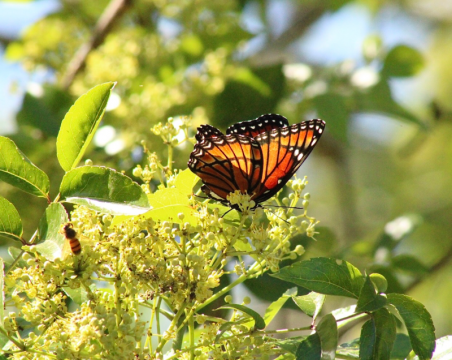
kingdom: Animalia
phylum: Arthropoda
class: Insecta
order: Lepidoptera
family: Nymphalidae
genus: Limenitis
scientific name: Limenitis archippus
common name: Viceroy
